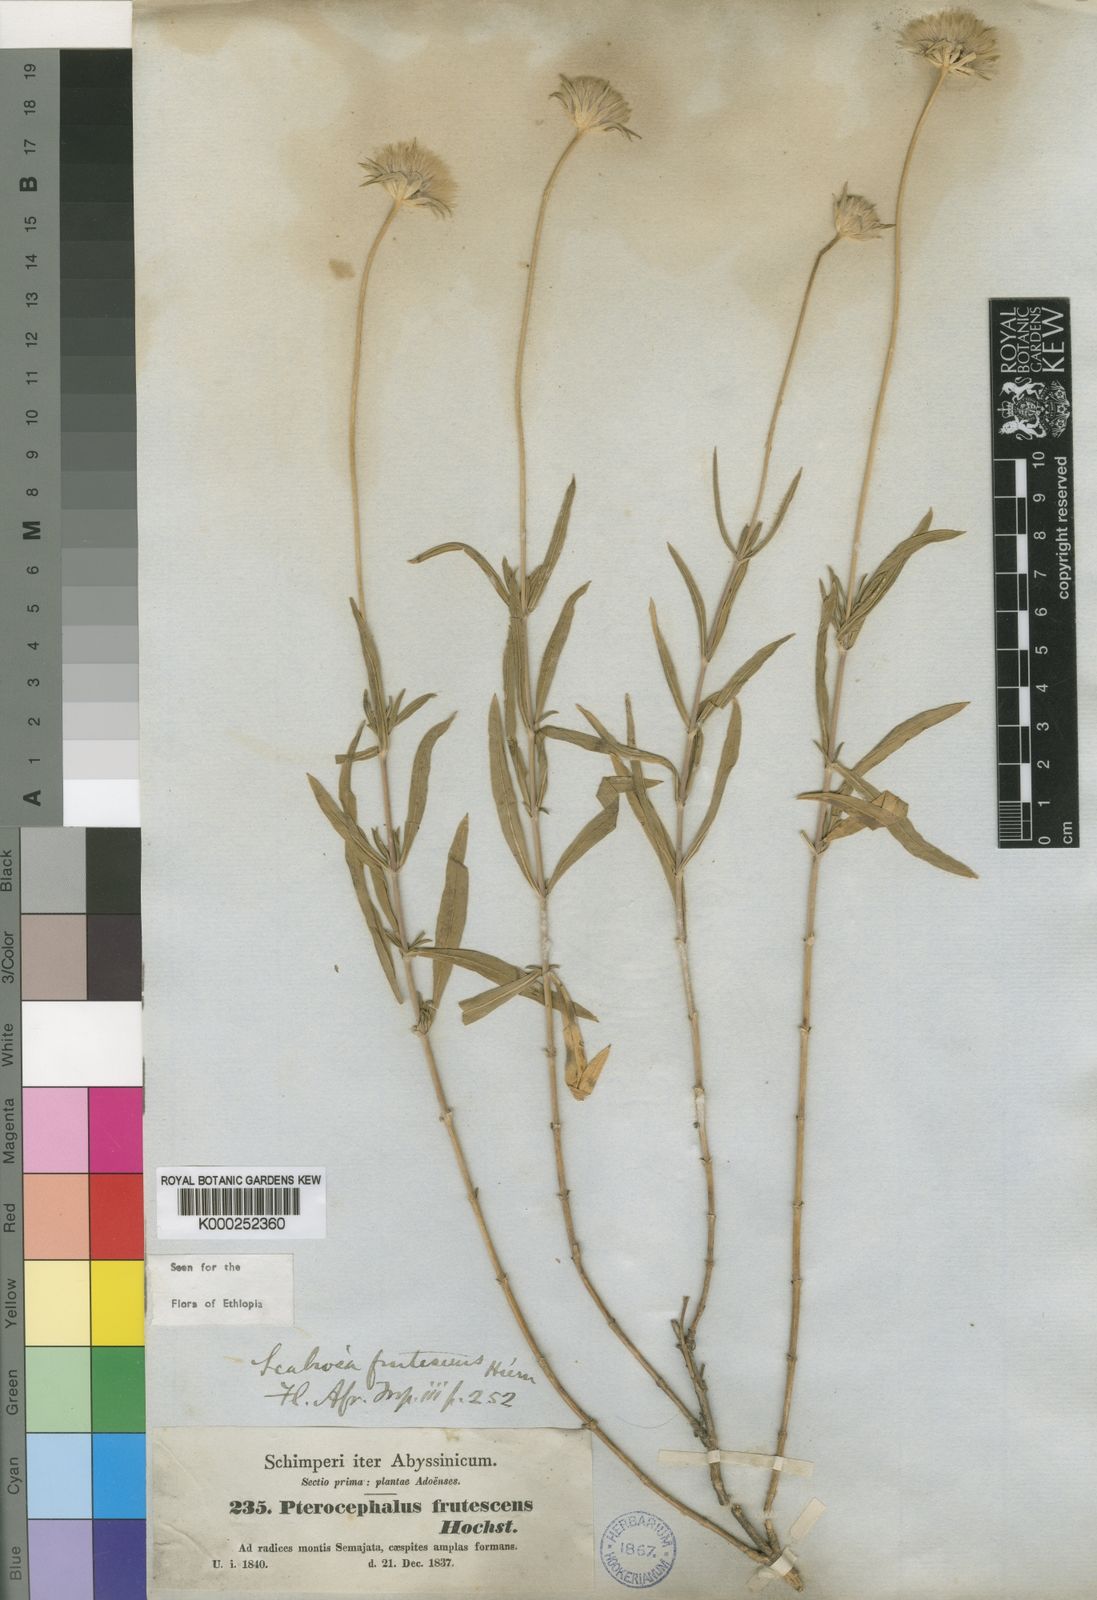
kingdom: Plantae
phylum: Tracheophyta
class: Magnoliopsida
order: Dipsacales
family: Caprifoliaceae
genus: Pterocephalus
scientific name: Pterocephalus
